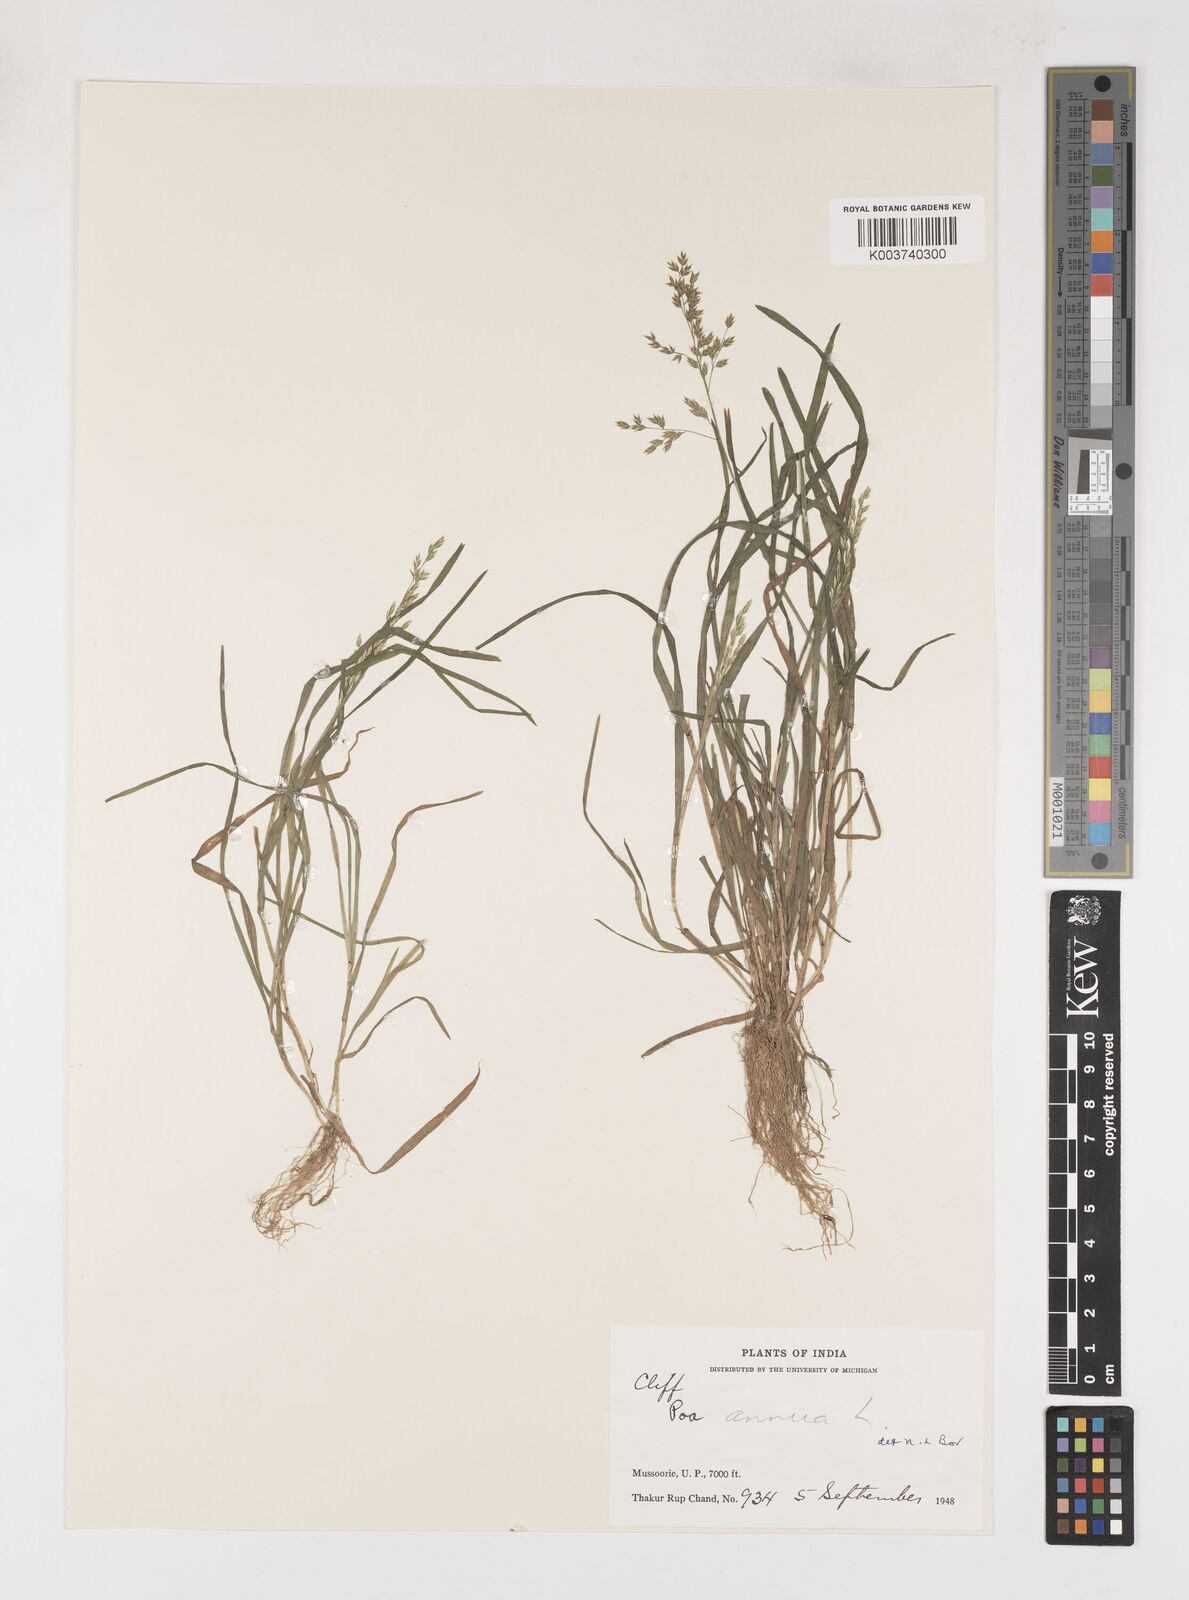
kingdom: Plantae
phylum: Tracheophyta
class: Liliopsida
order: Poales
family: Poaceae
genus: Poa
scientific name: Poa annua
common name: Annual bluegrass
